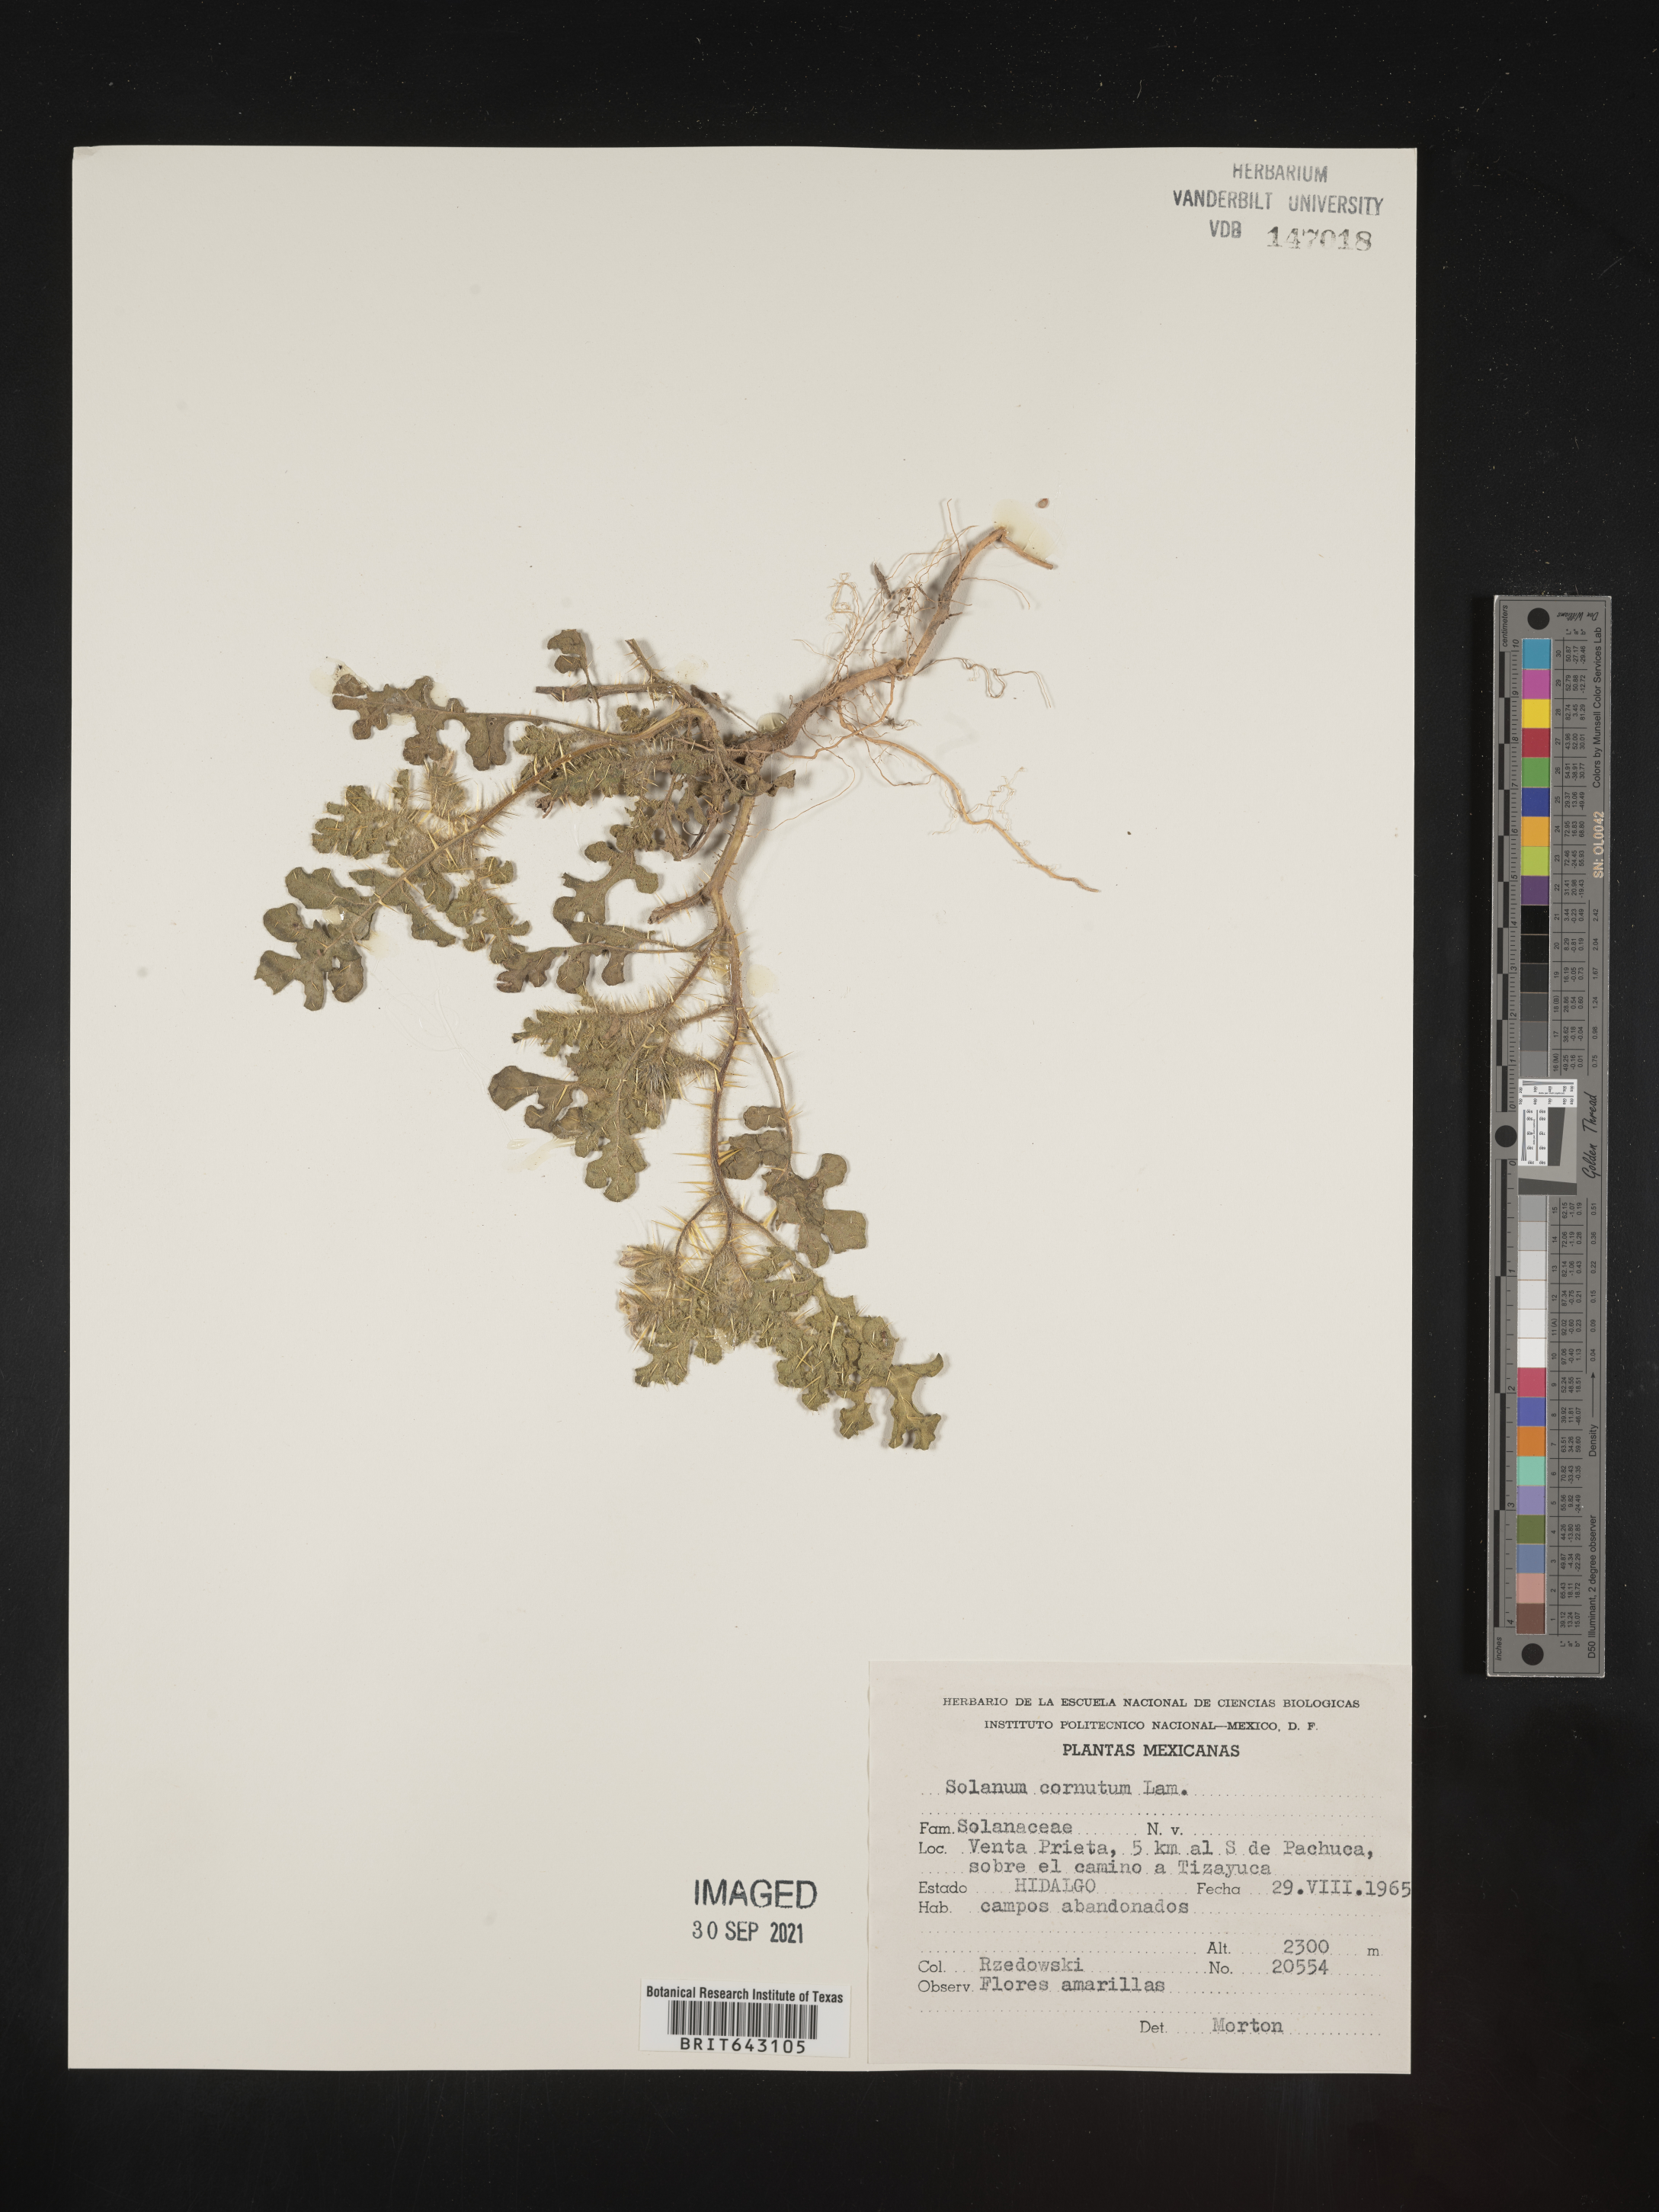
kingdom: Plantae
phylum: Tracheophyta
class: Magnoliopsida
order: Solanales
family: Solanaceae
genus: Solanum
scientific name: Solanum
